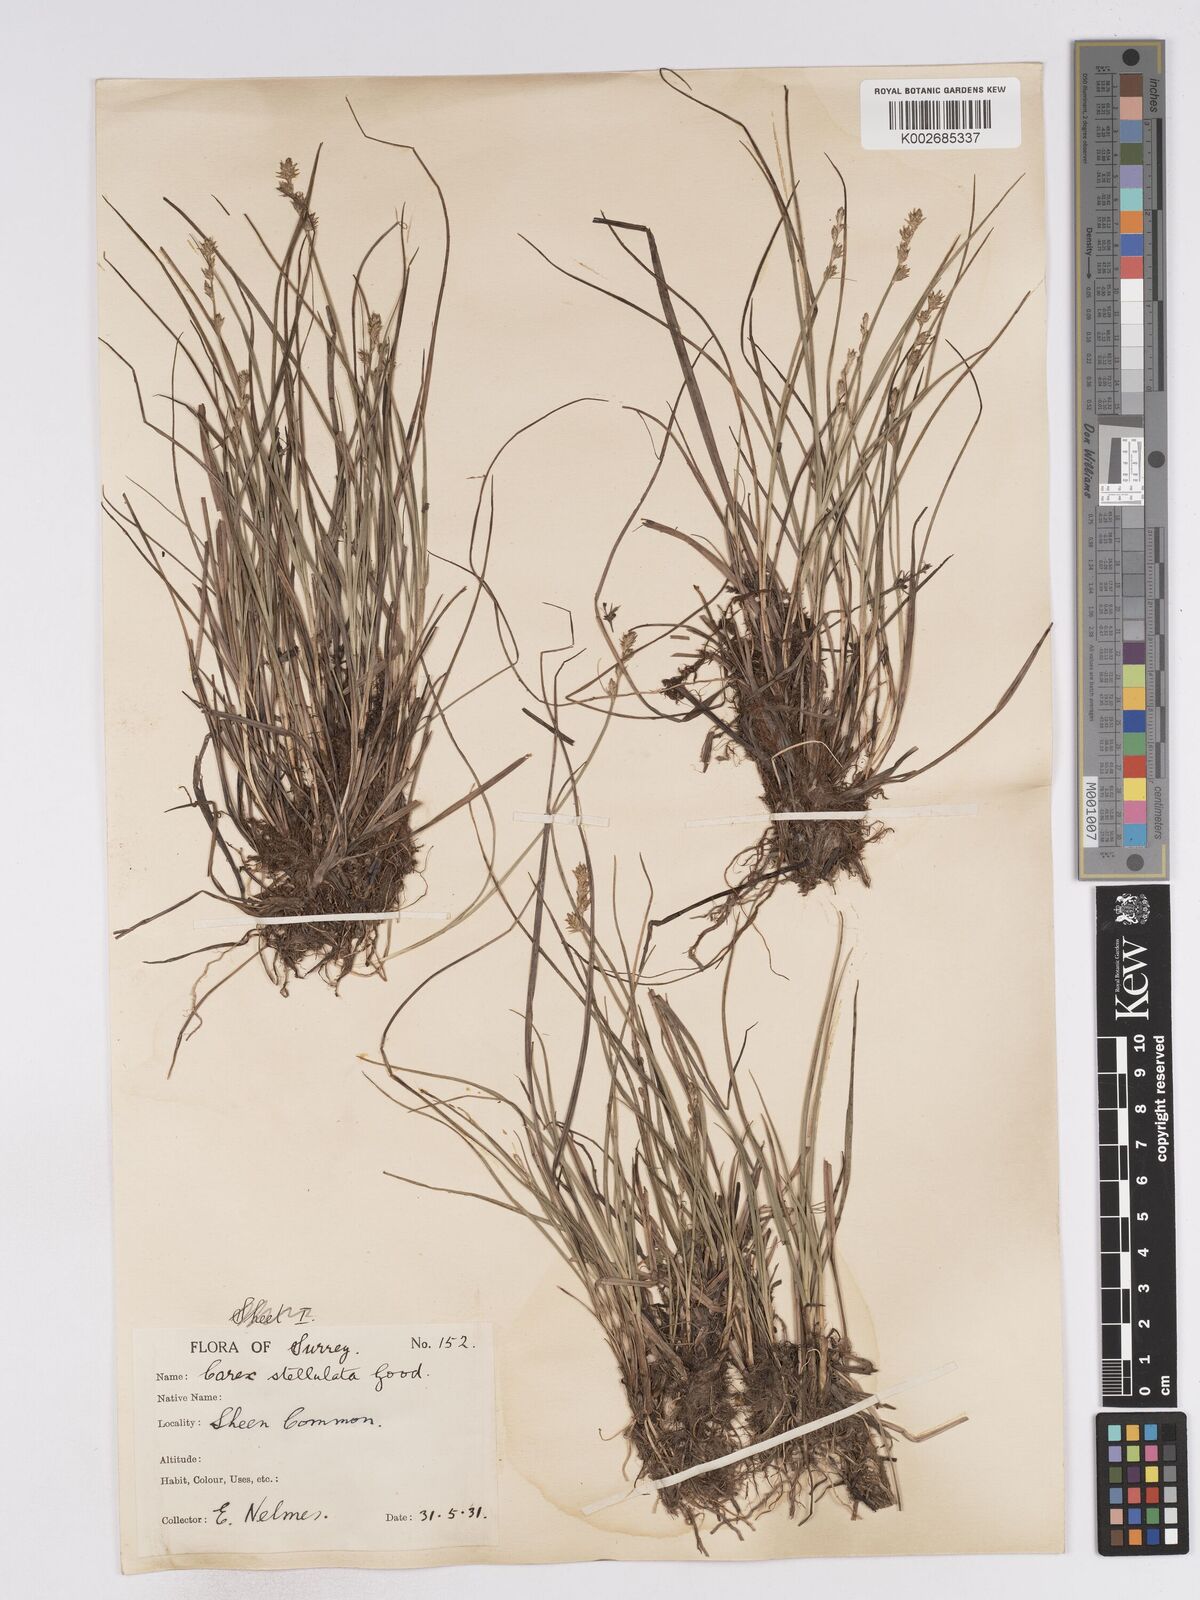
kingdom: Plantae
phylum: Tracheophyta
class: Liliopsida
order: Poales
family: Cyperaceae
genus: Carex
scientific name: Carex echinata
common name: Star sedge
